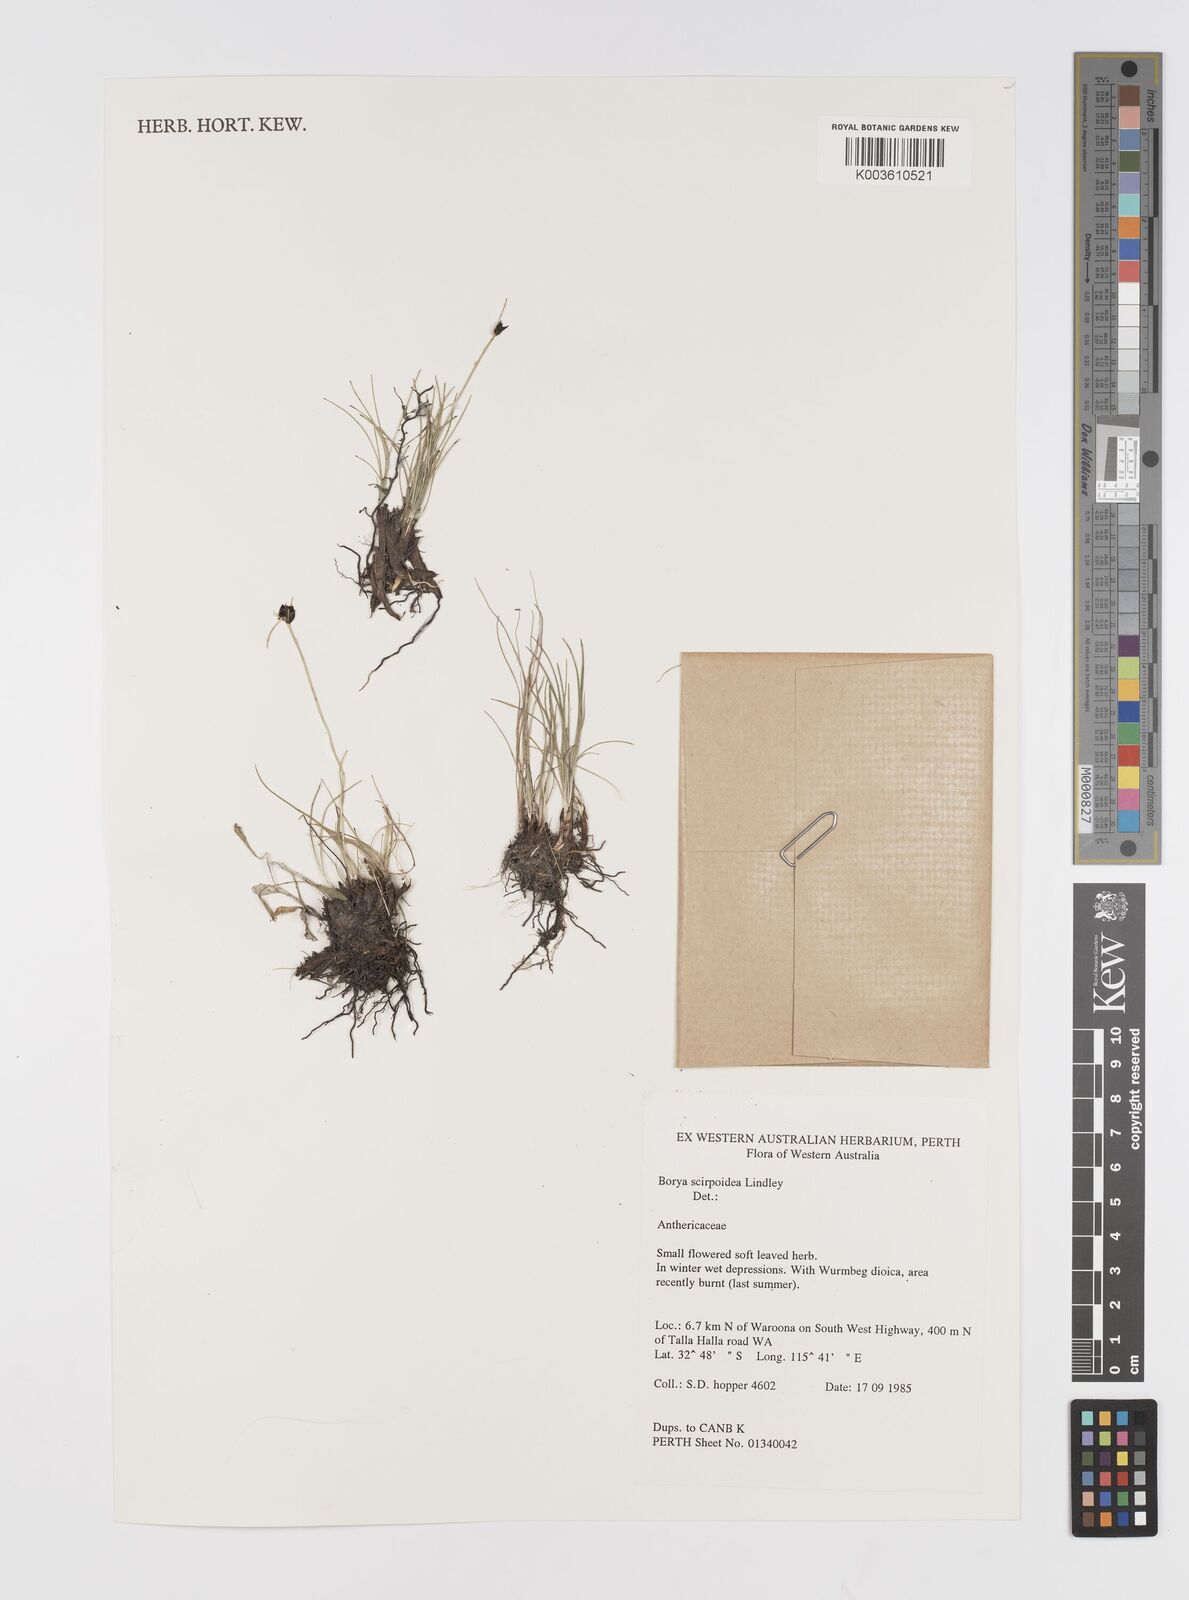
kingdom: Plantae
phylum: Tracheophyta
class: Liliopsida
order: Asparagales
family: Boryaceae
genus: Borya
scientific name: Borya scirpoidea
